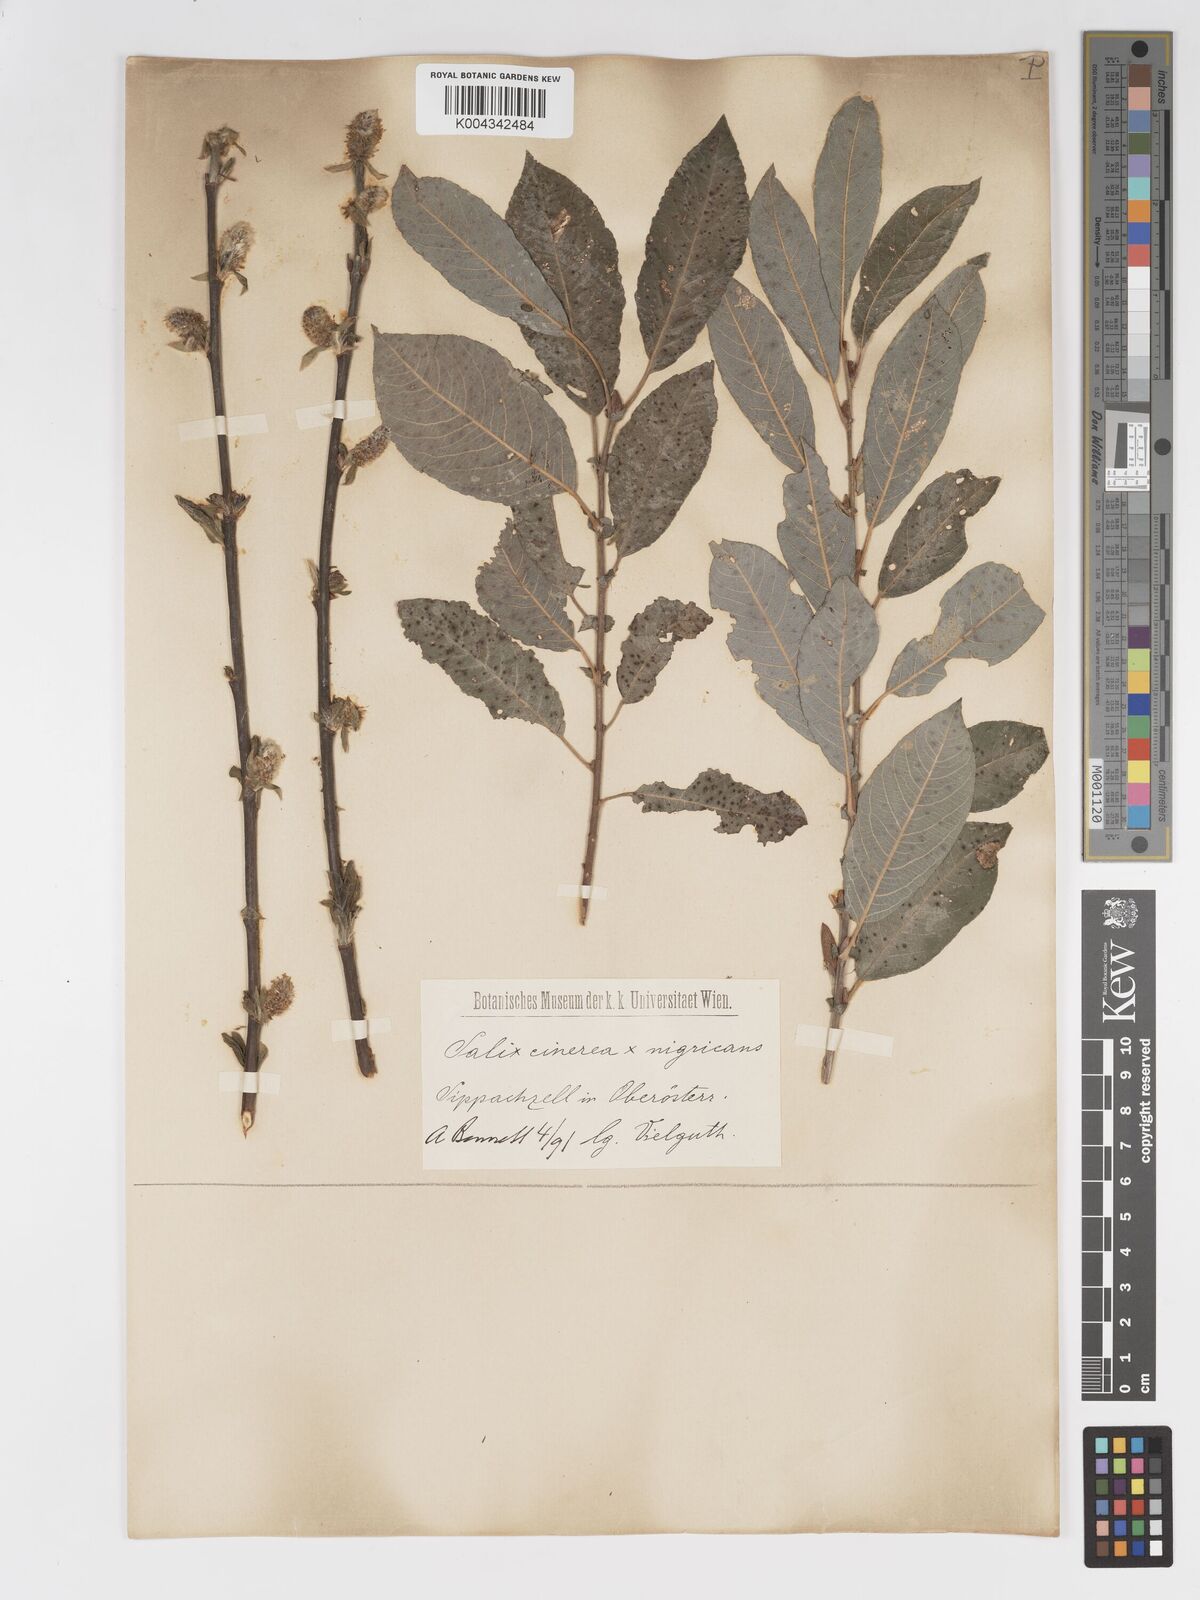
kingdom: Plantae
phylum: Tracheophyta
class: Magnoliopsida
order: Malpighiales
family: Salicaceae
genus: Salix
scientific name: Salix
